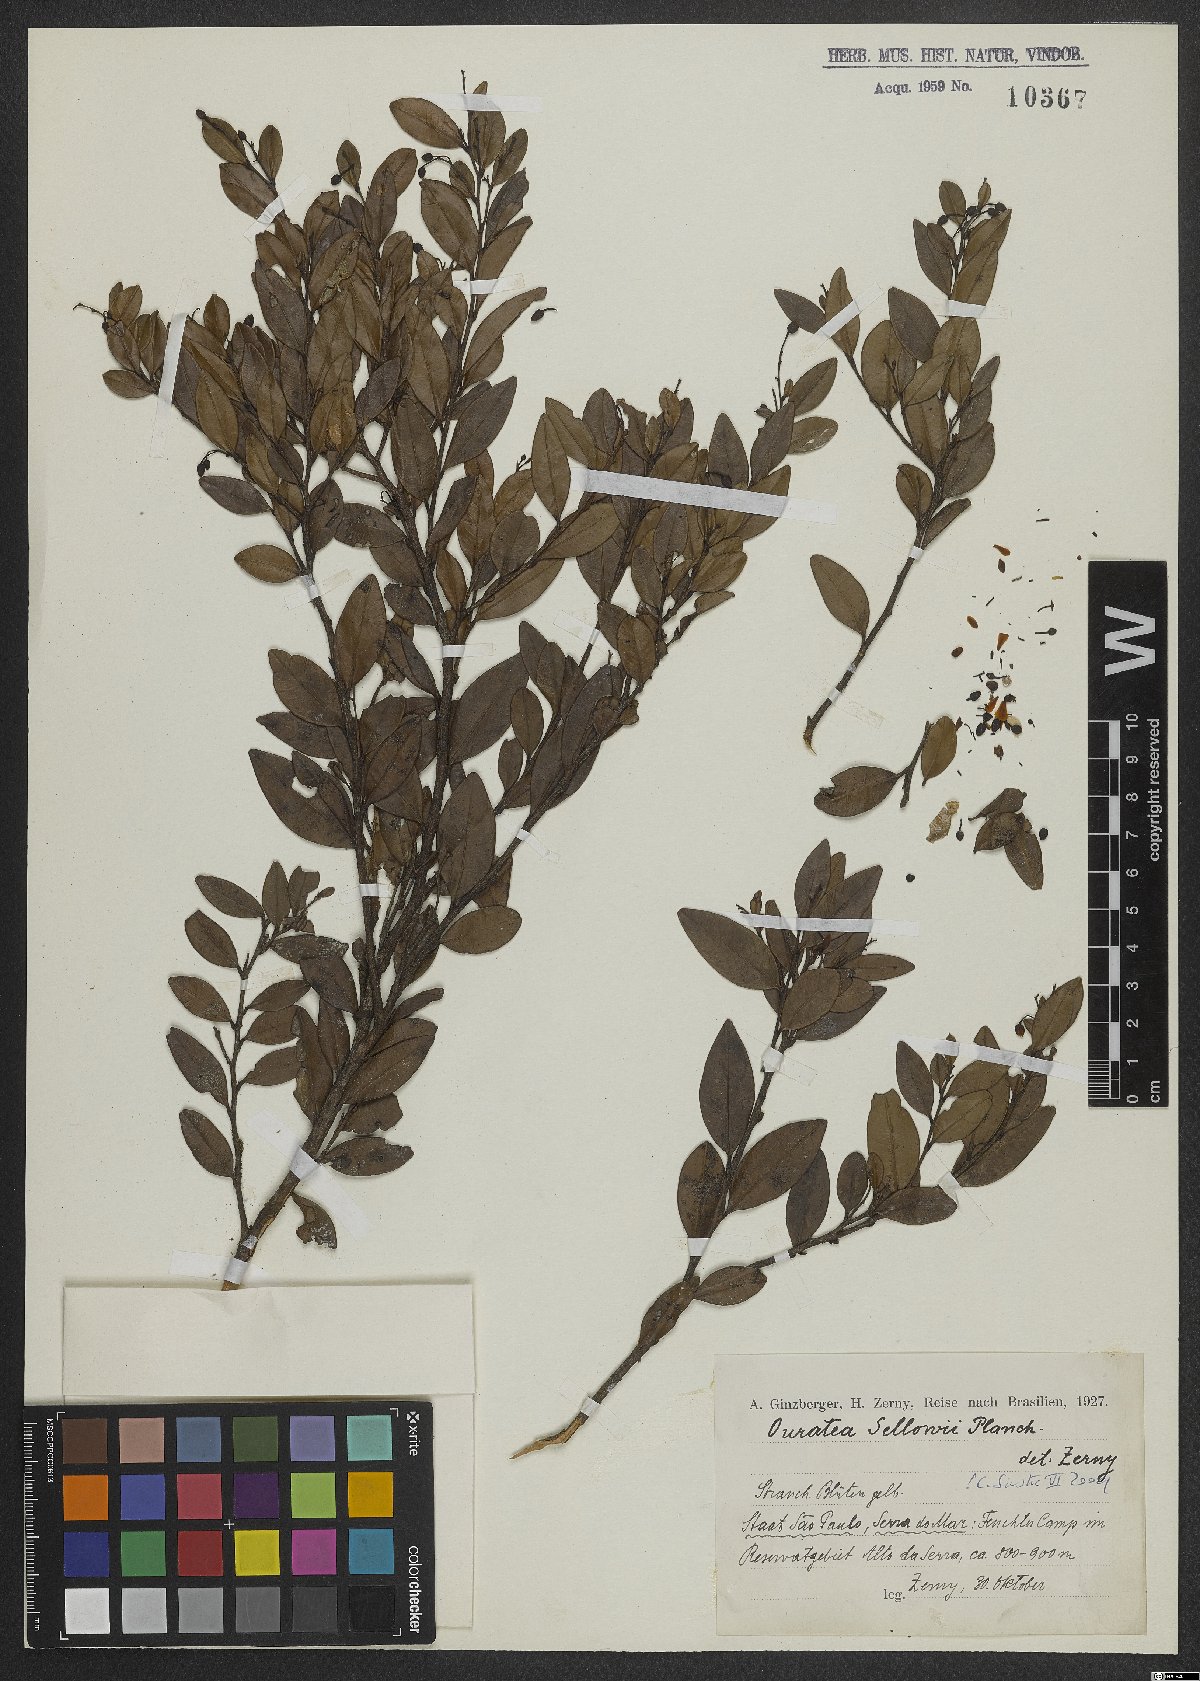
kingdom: Plantae
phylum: Tracheophyta
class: Magnoliopsida
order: Malpighiales
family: Ochnaceae
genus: Ouratea
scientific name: Ouratea sellowii
